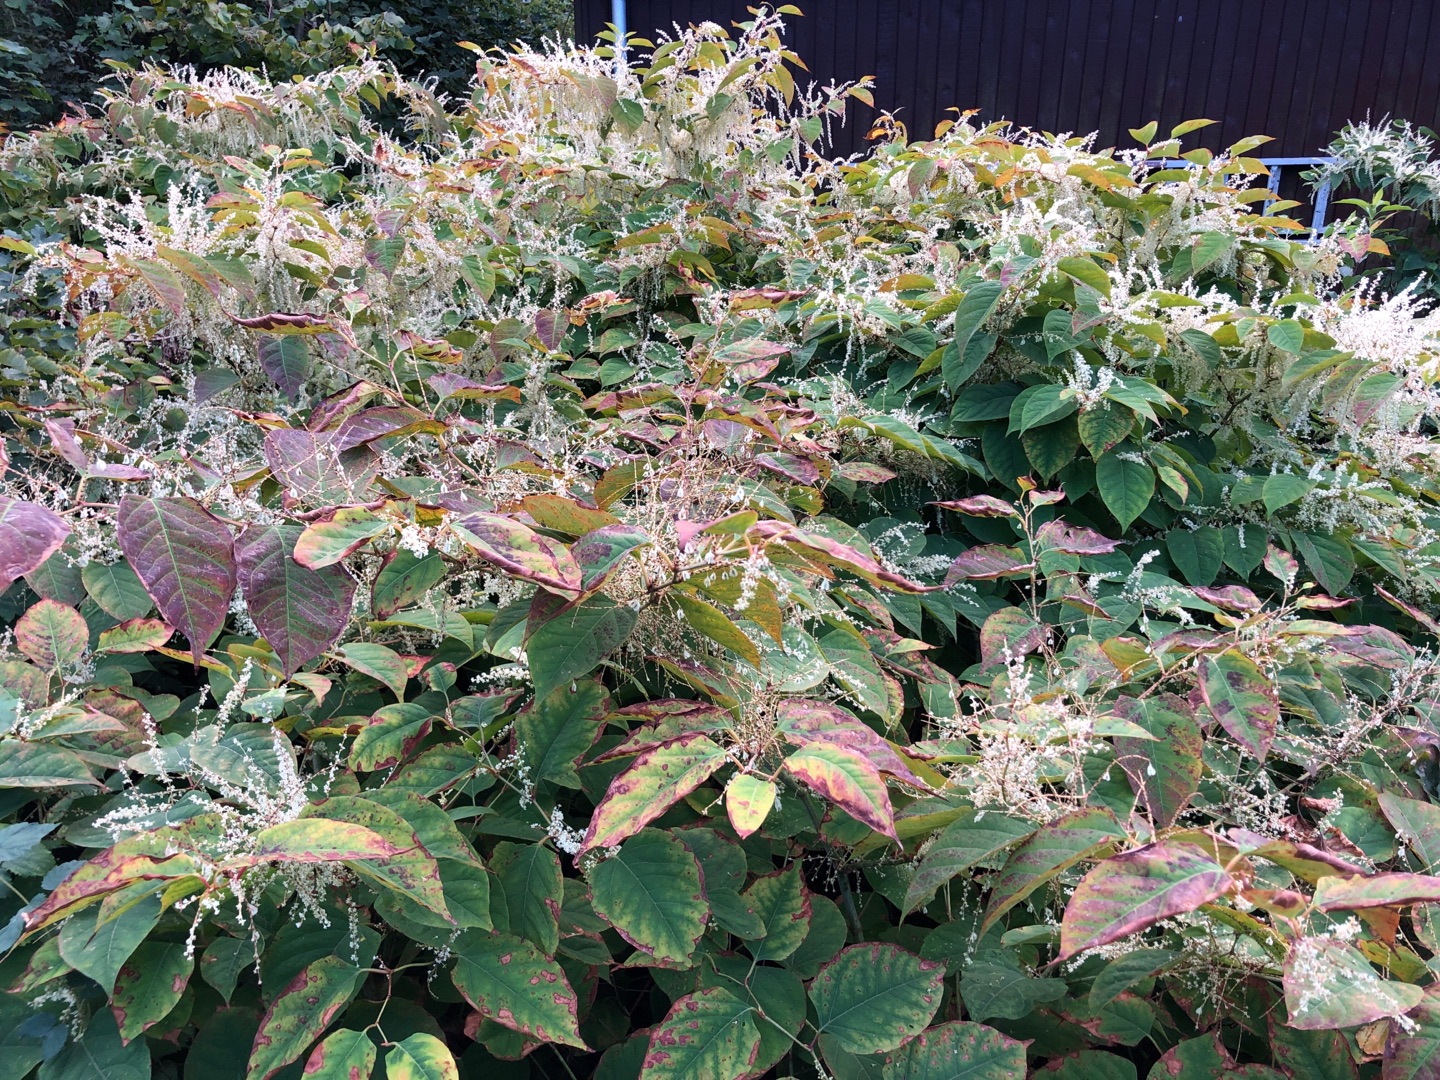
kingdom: Plantae
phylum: Tracheophyta
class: Magnoliopsida
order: Caryophyllales
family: Polygonaceae
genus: Reynoutria
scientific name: Reynoutria japonica
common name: Japan-pileurt
